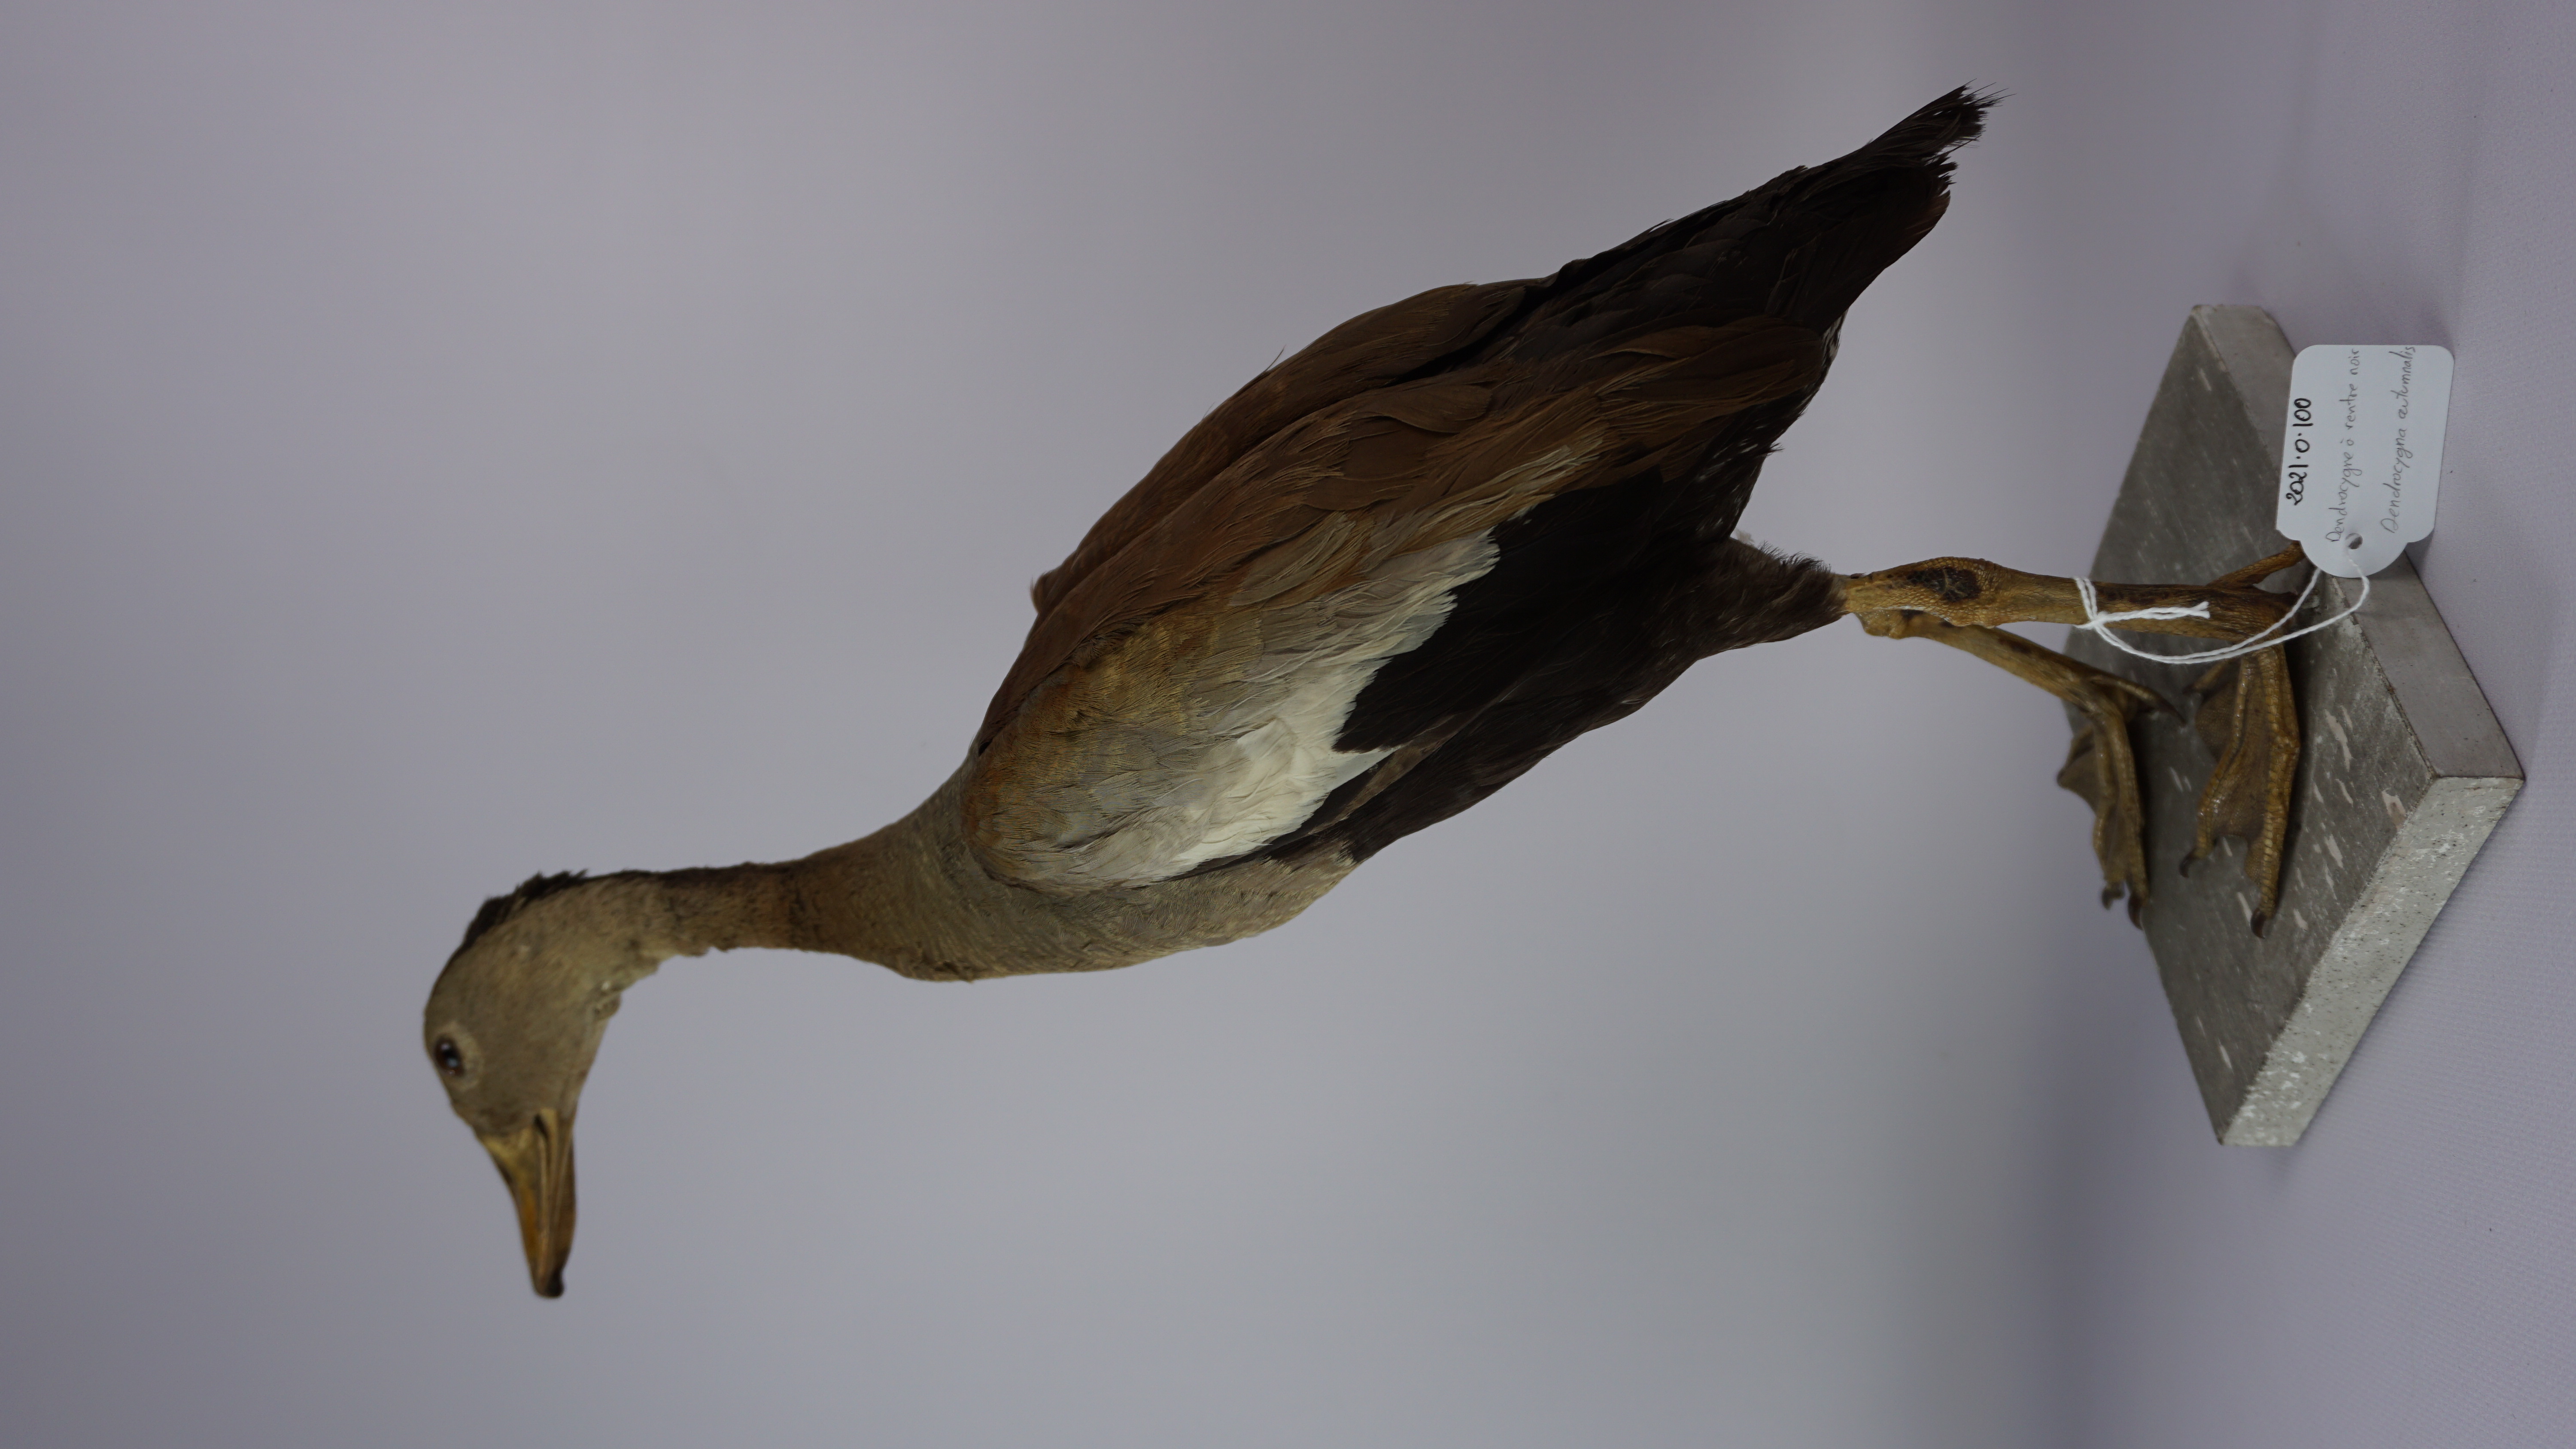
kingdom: Animalia
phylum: Chordata
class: Aves
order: Anseriformes
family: Anatidae
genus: Dendrocygna
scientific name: Dendrocygna autumnalis
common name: Black-bellied whistling duck
